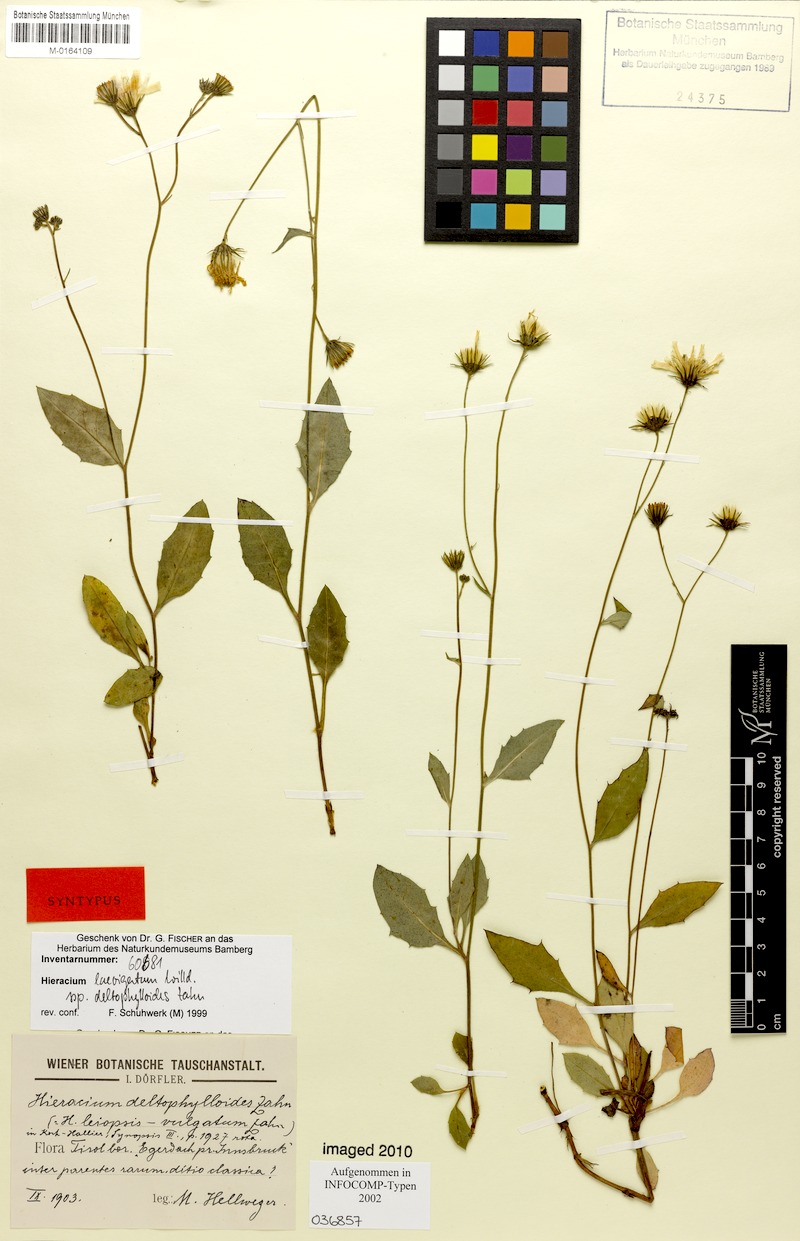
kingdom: Plantae
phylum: Tracheophyta
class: Magnoliopsida
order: Asterales
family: Asteraceae
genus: Hieracium
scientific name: Hieracium laevigatum
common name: Smooth hawkweed
